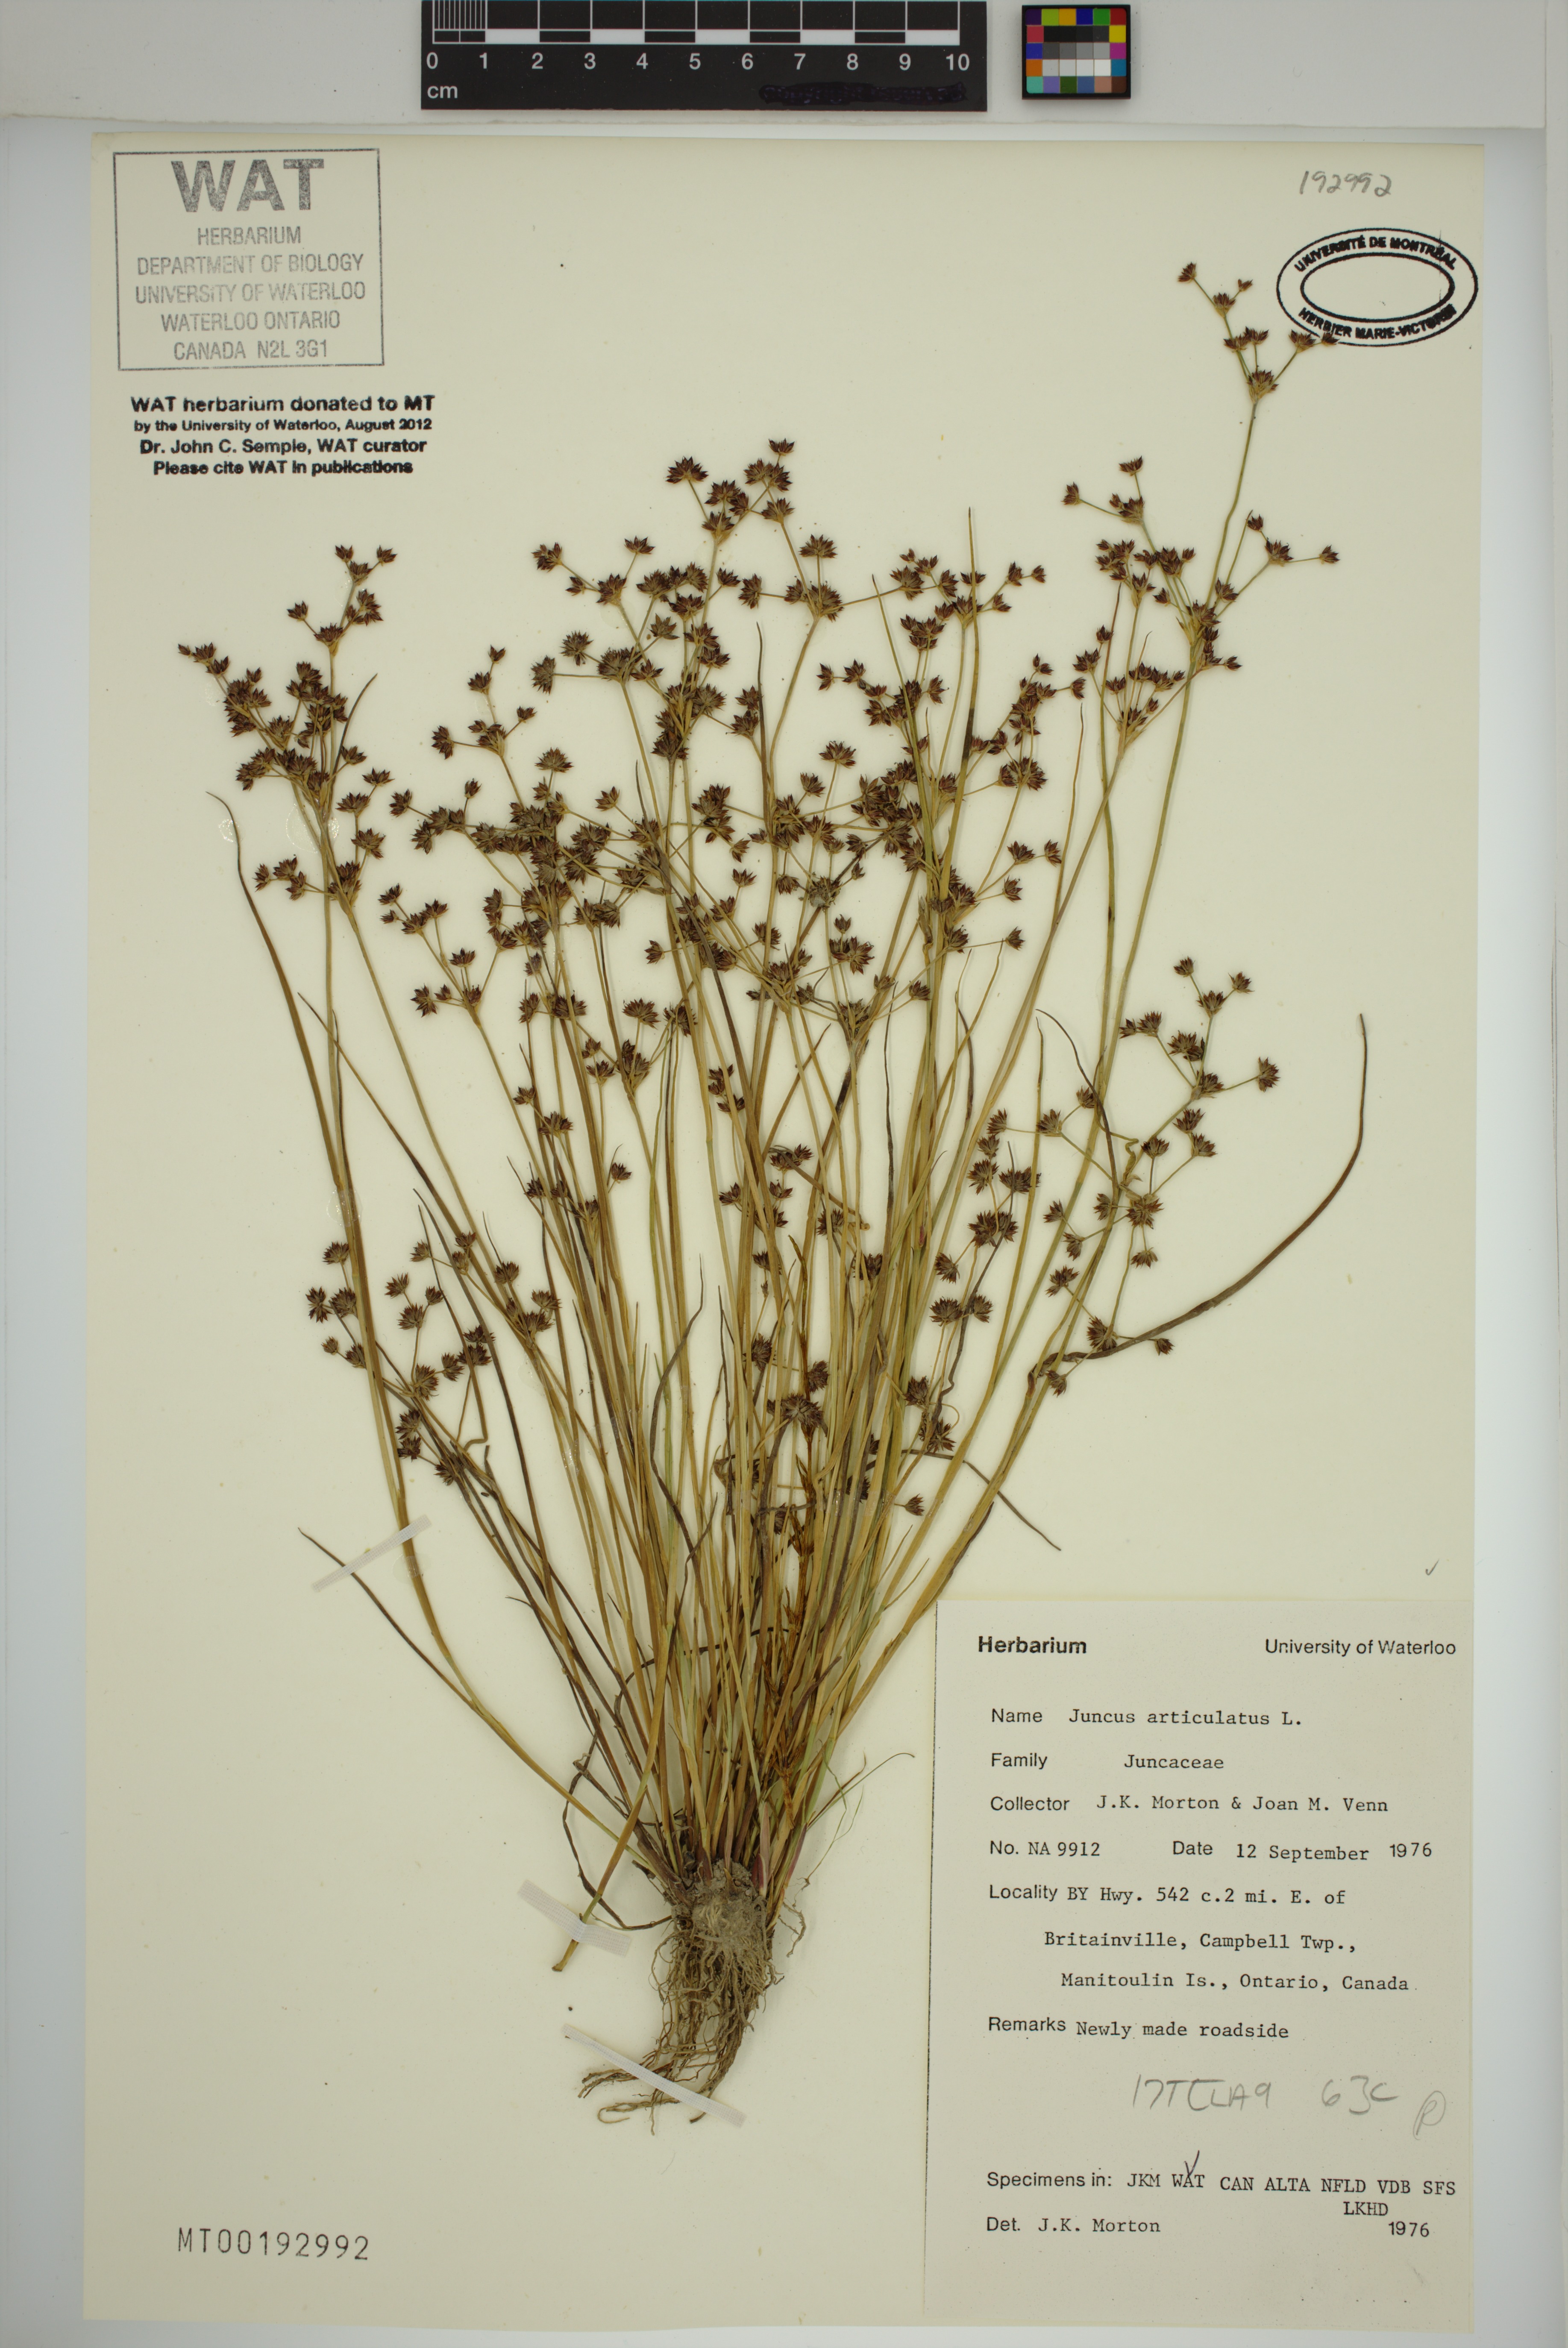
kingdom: Plantae
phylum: Tracheophyta
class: Liliopsida
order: Poales
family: Juncaceae
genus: Juncus
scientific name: Juncus articulatus
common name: Jointed rush
